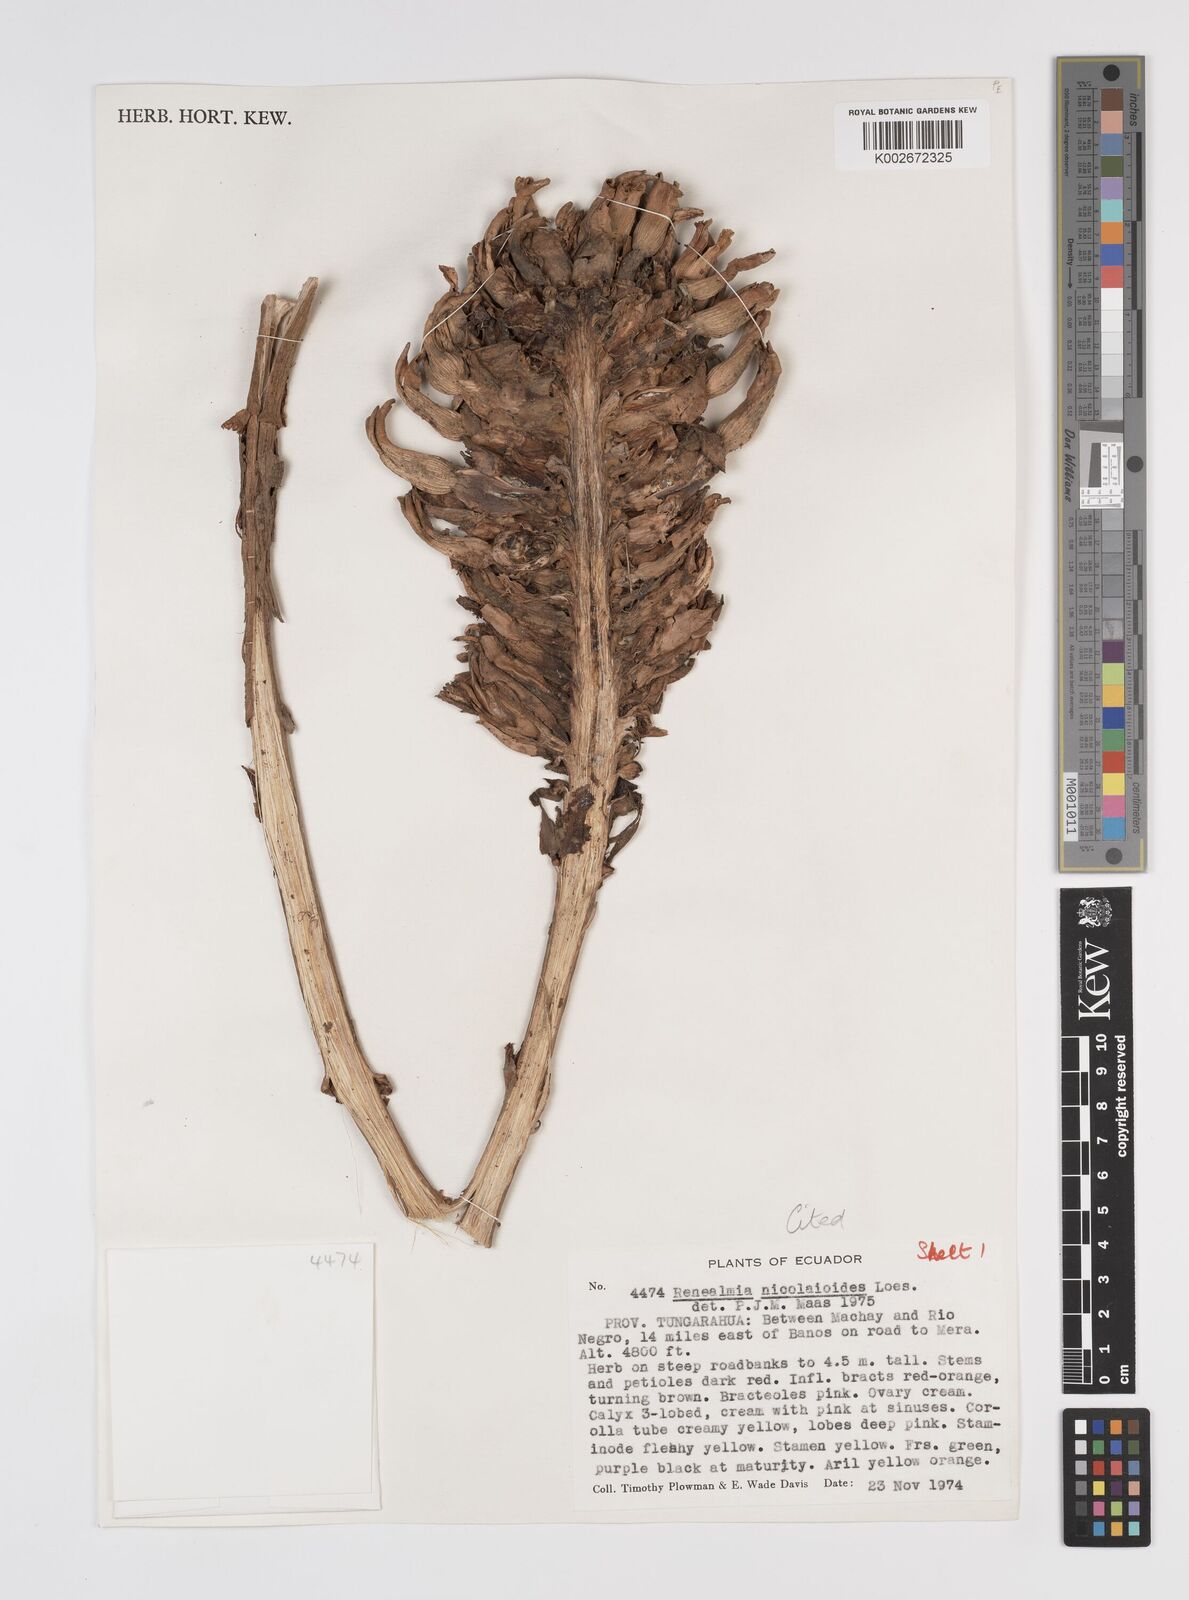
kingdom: Plantae
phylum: Tracheophyta
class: Liliopsida
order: Zingiberales
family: Zingiberaceae
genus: Renealmia
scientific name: Renealmia nicolaioides
